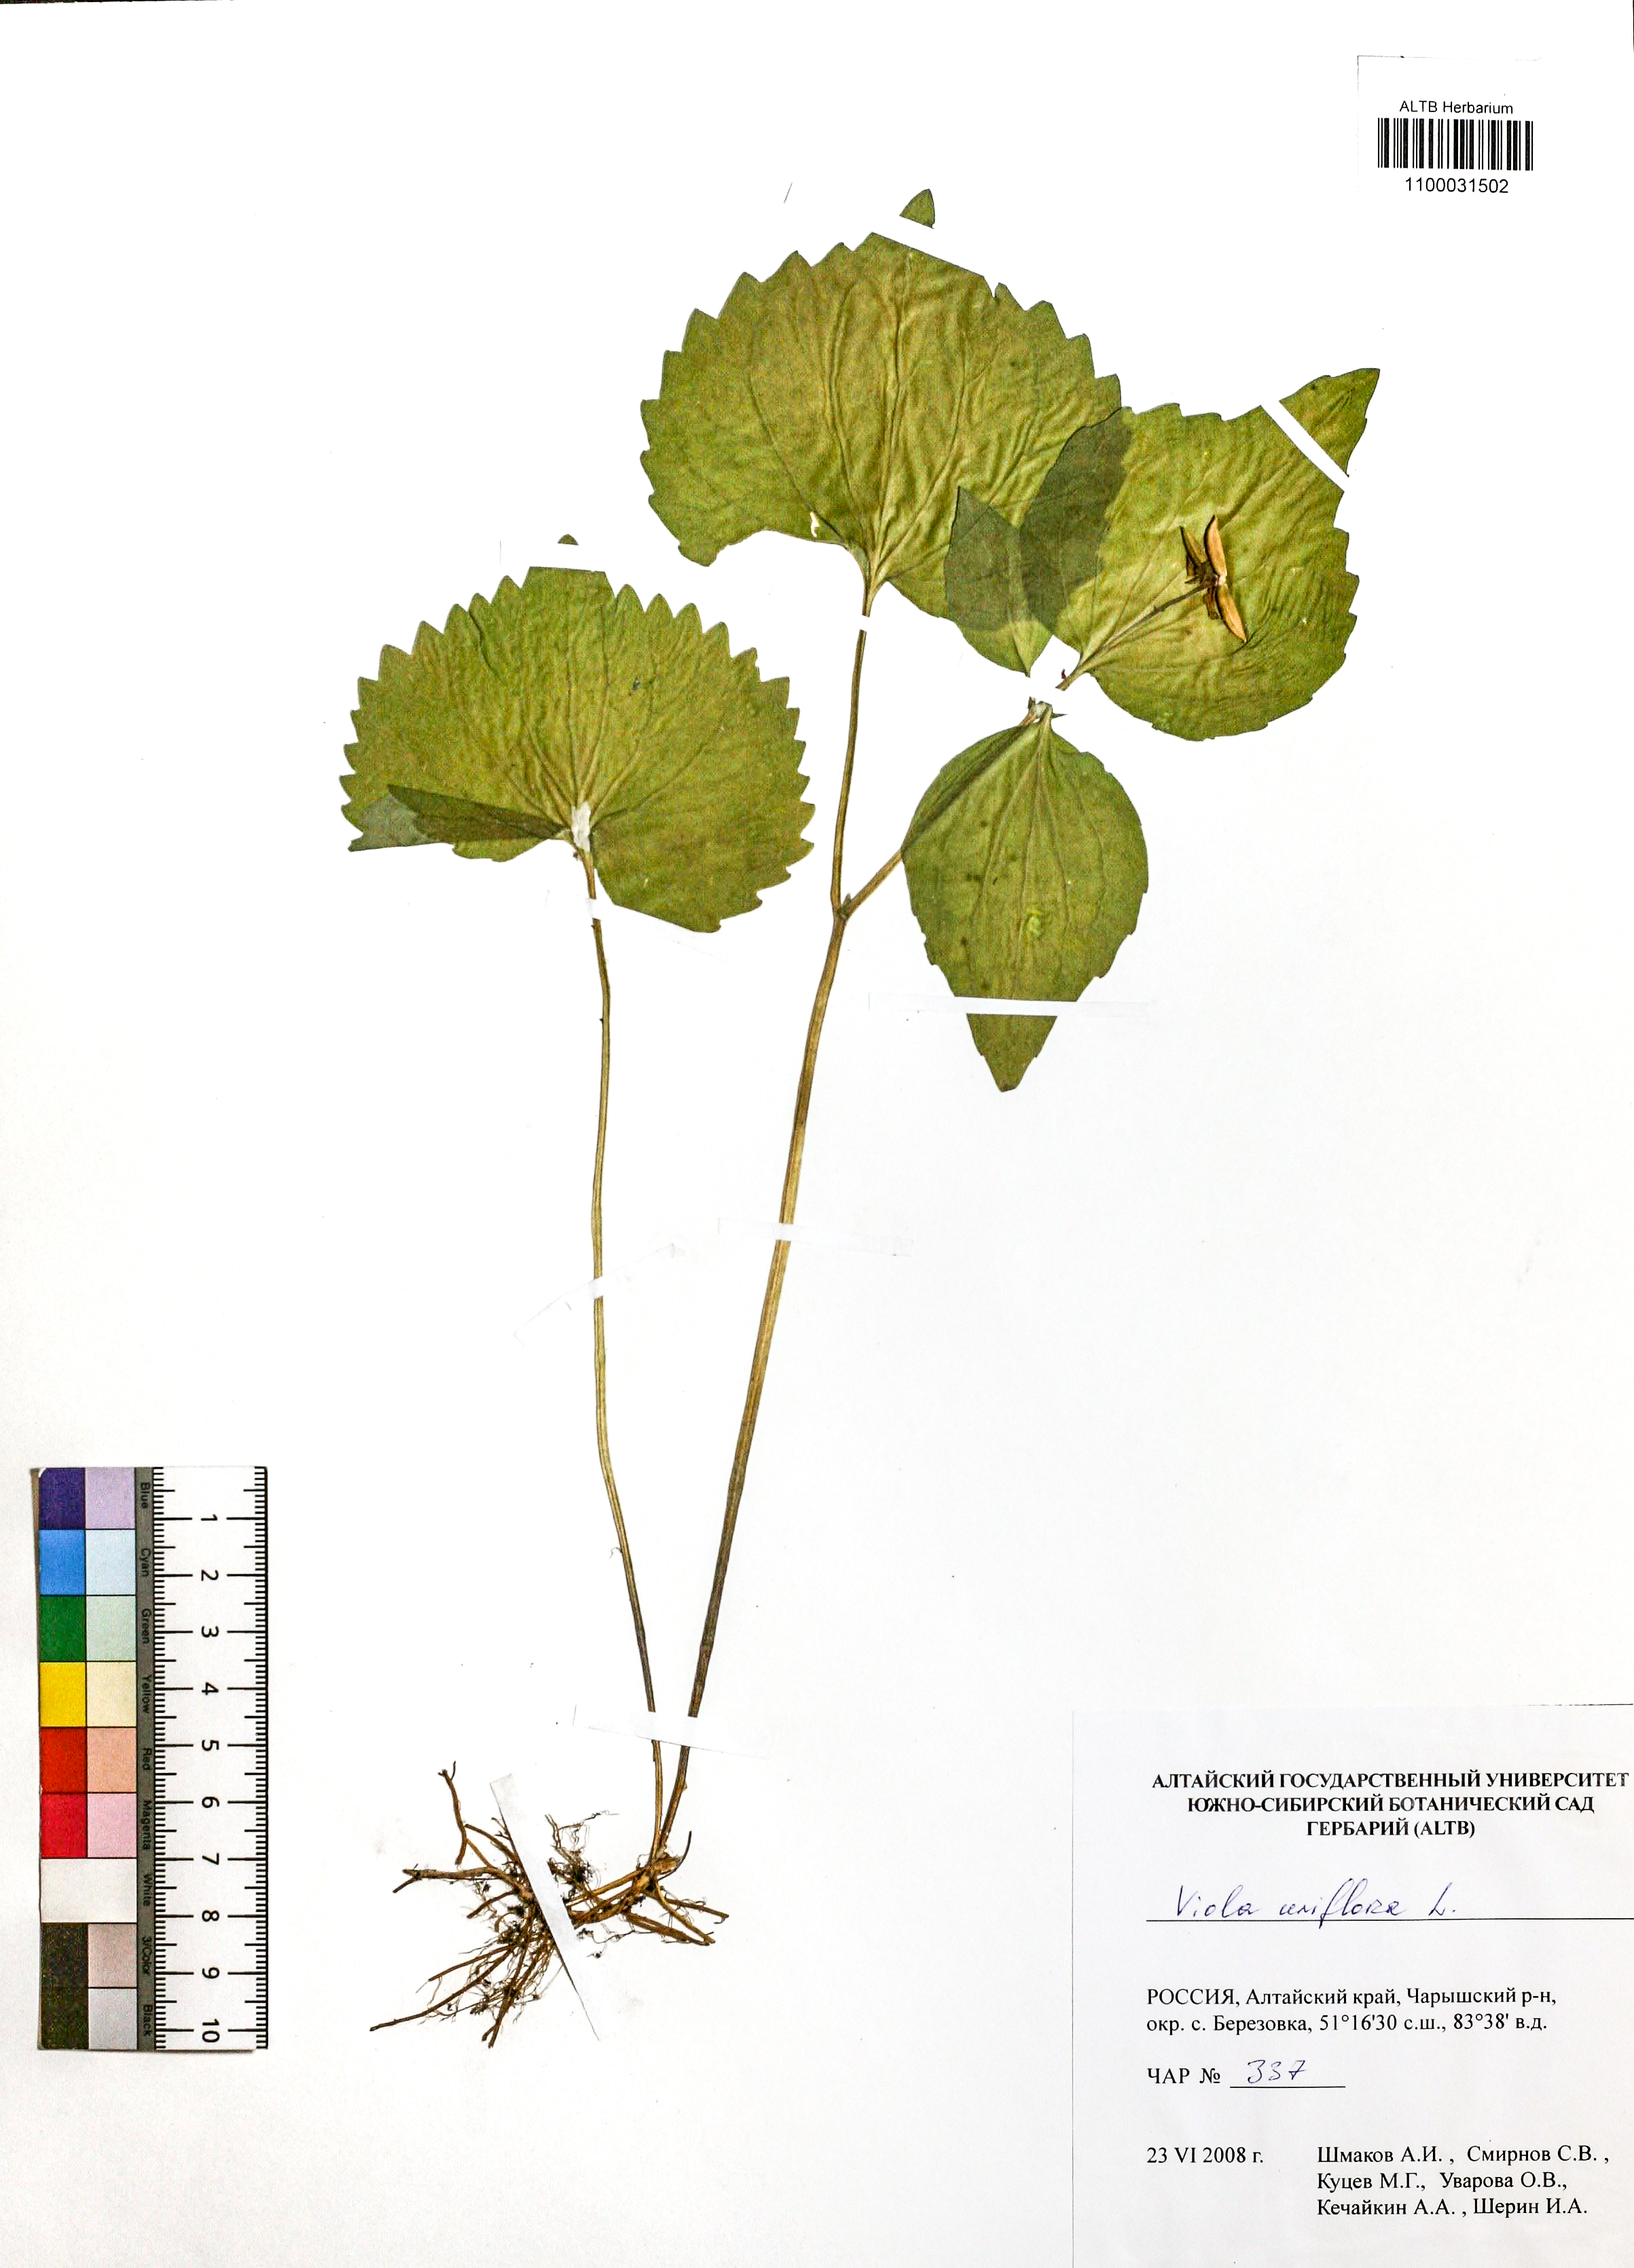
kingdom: Plantae
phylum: Tracheophyta
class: Magnoliopsida
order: Malpighiales
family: Violaceae
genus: Viola
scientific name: Viola uniflora
